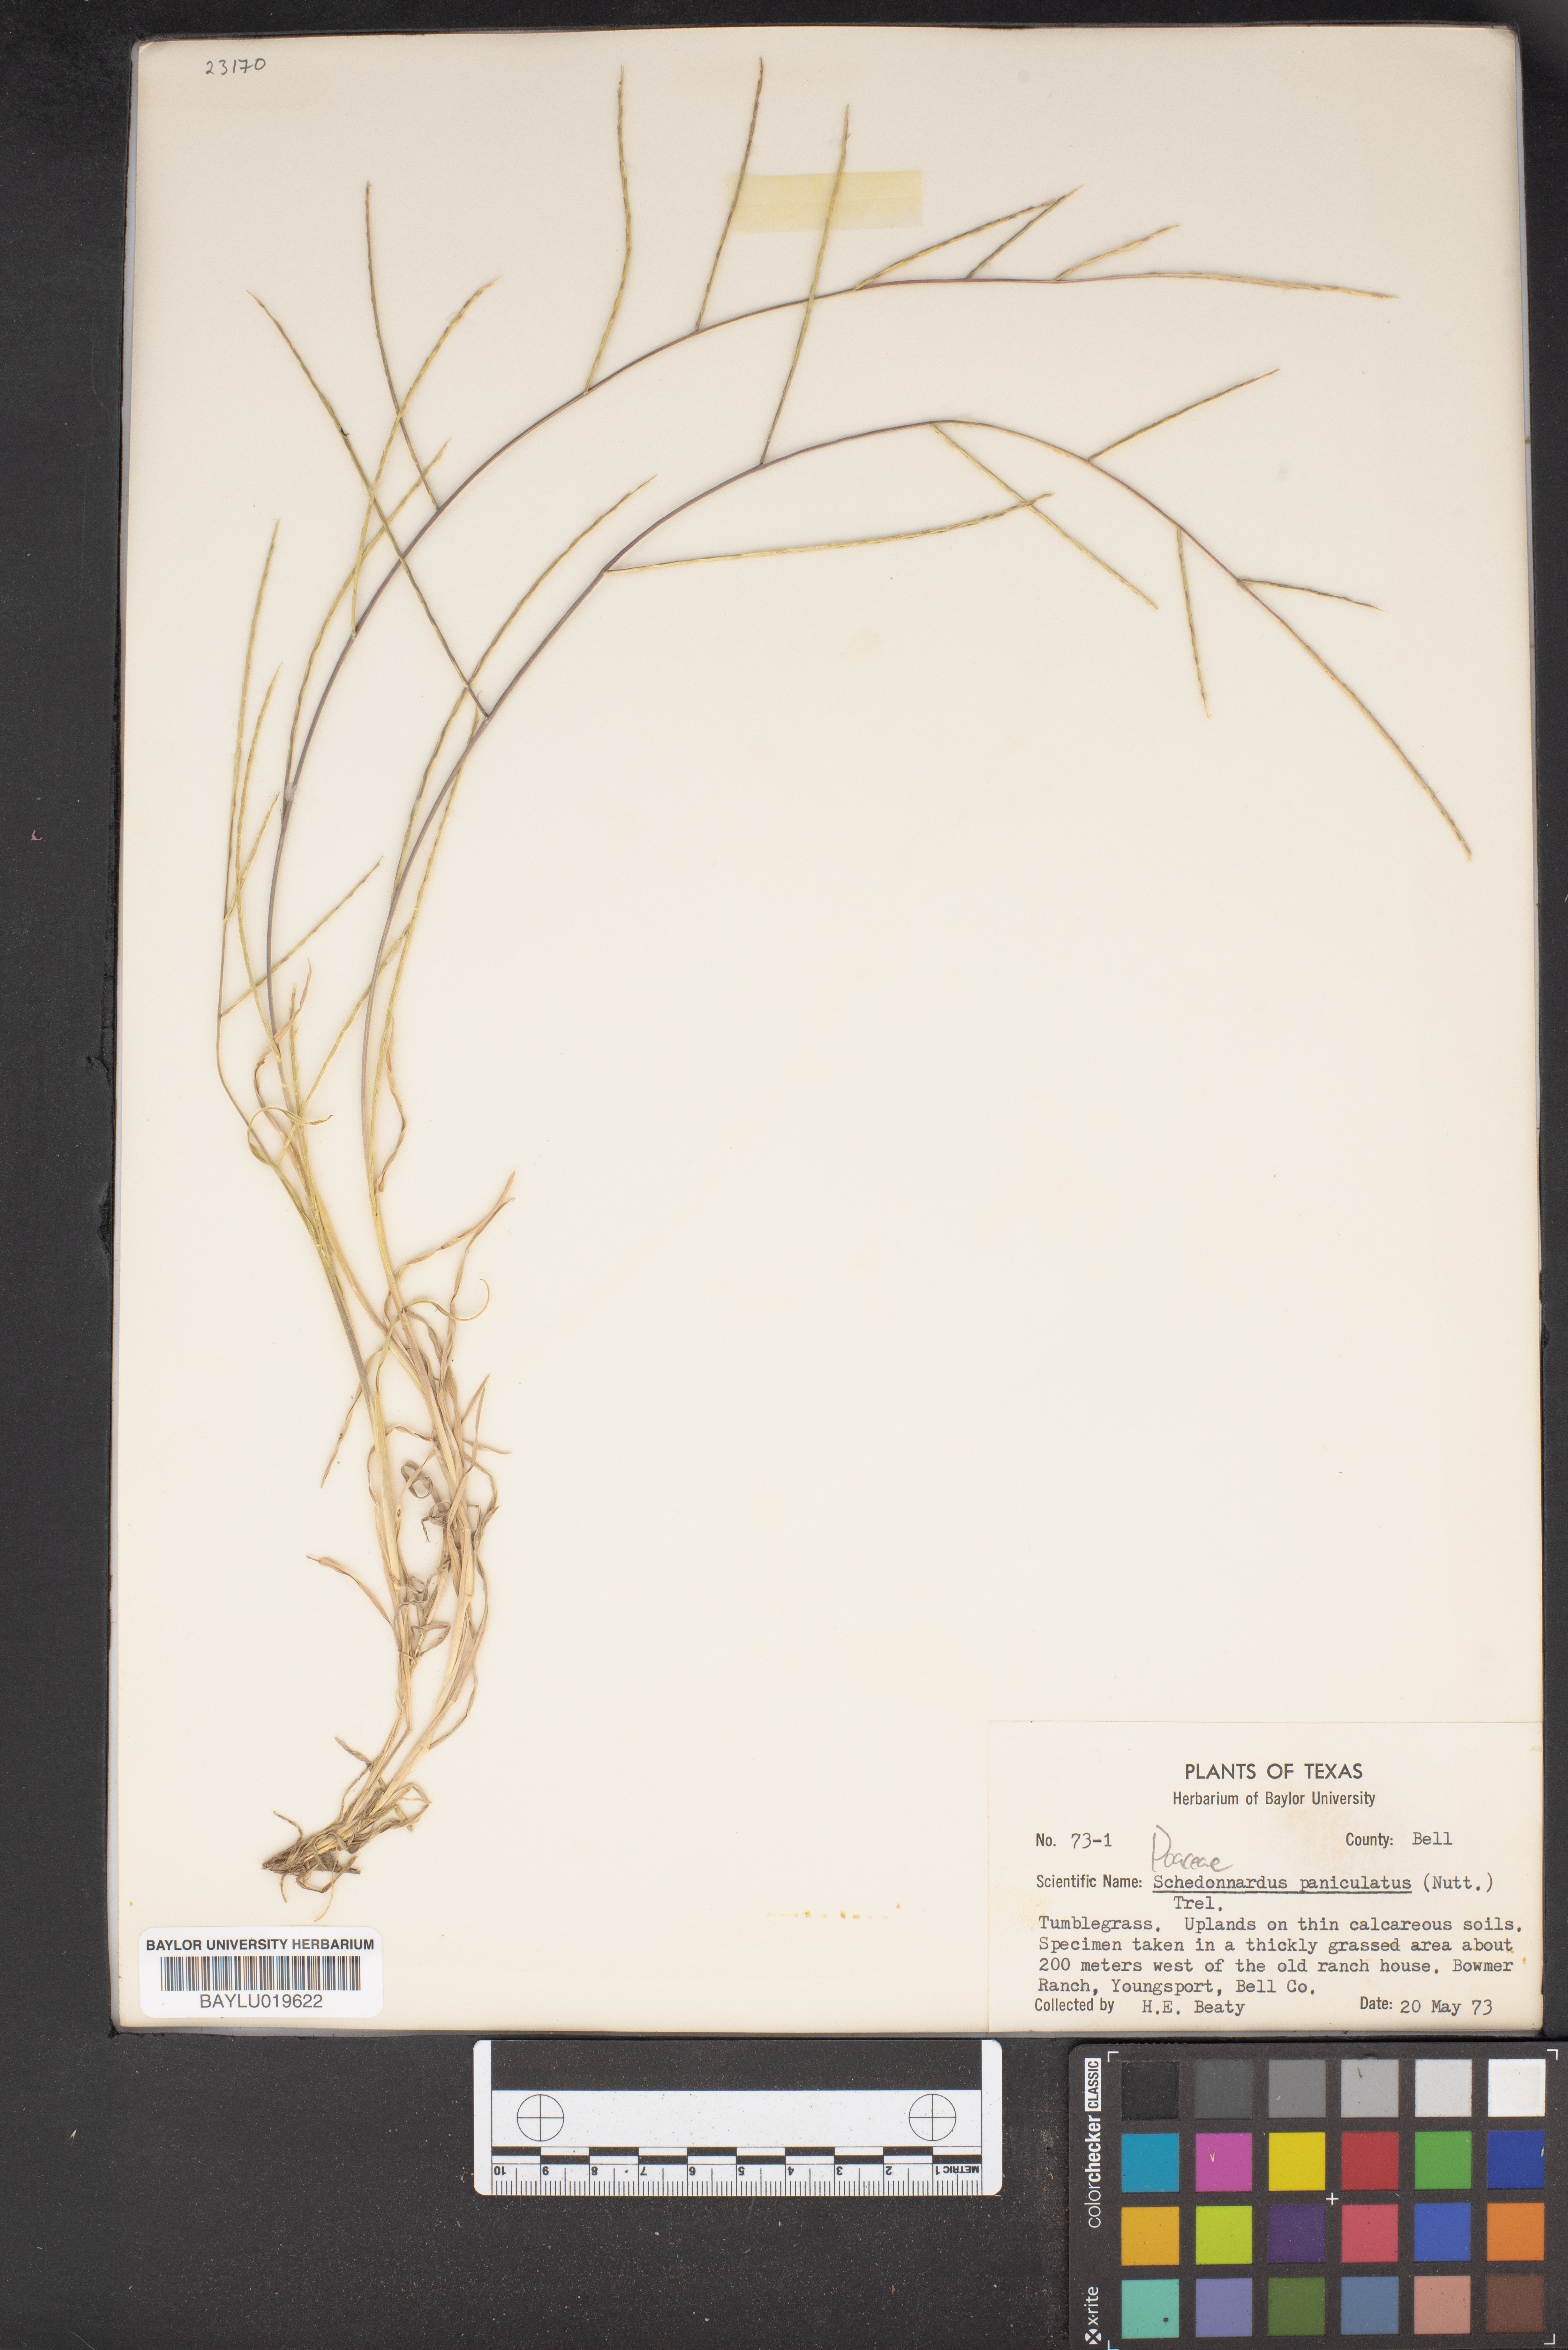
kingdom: Plantae
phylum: Tracheophyta
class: Liliopsida
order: Poales
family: Poaceae
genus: Muhlenbergia
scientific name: Muhlenbergia paniculata
